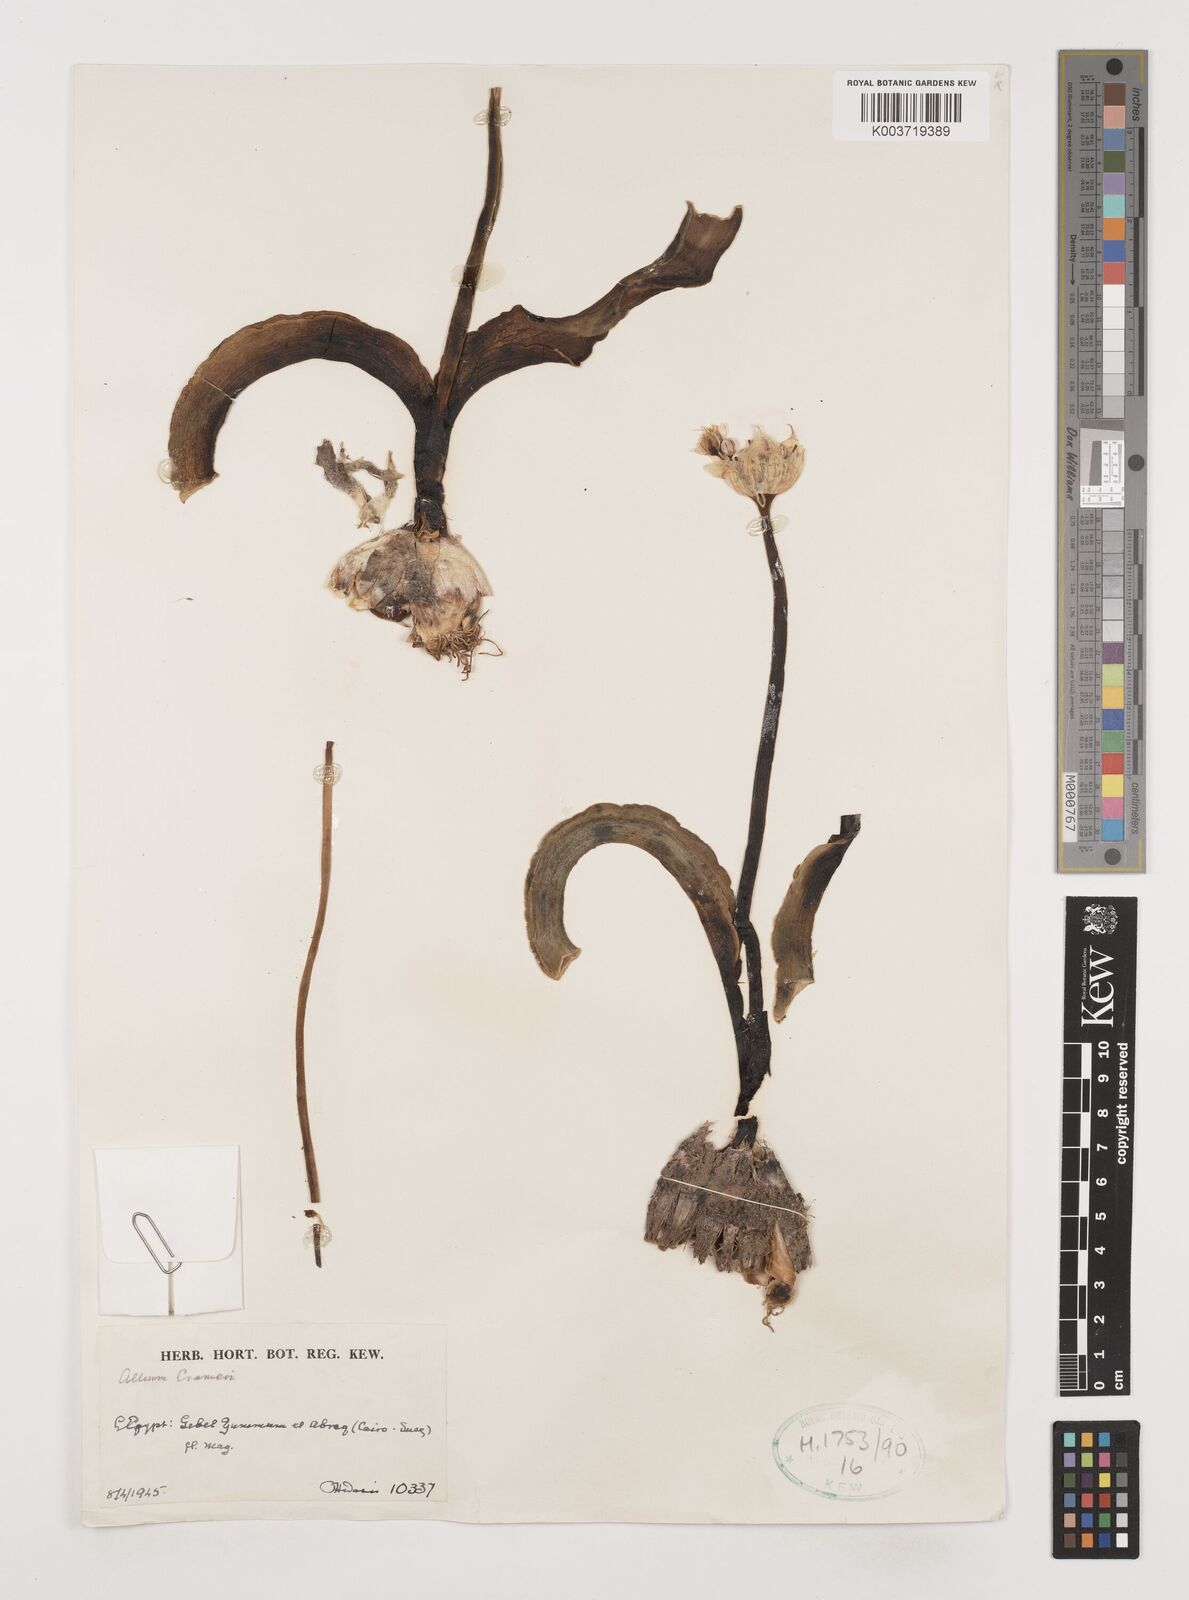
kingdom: Plantae
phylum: Tracheophyta
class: Liliopsida
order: Asparagales
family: Amaryllidaceae
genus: Allium
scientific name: Allium crameri
